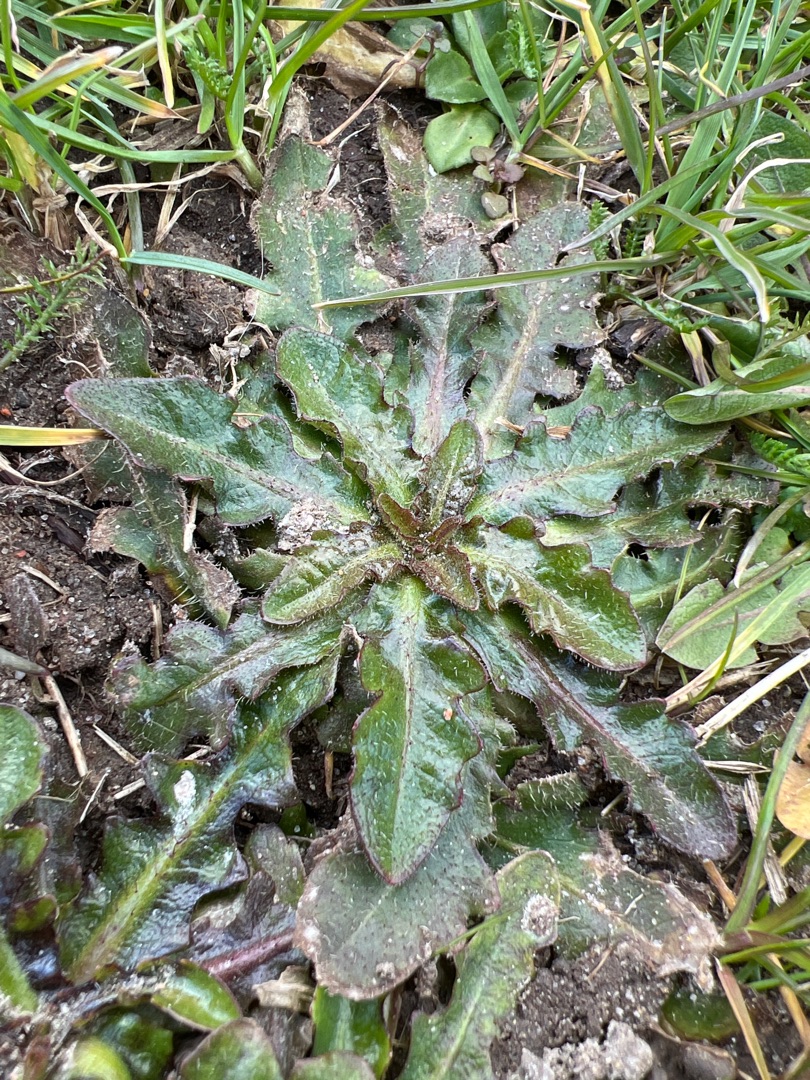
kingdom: Plantae
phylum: Tracheophyta
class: Magnoliopsida
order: Asterales
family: Asteraceae
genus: Hypochaeris
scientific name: Hypochaeris radicata
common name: Almindelig kongepen
